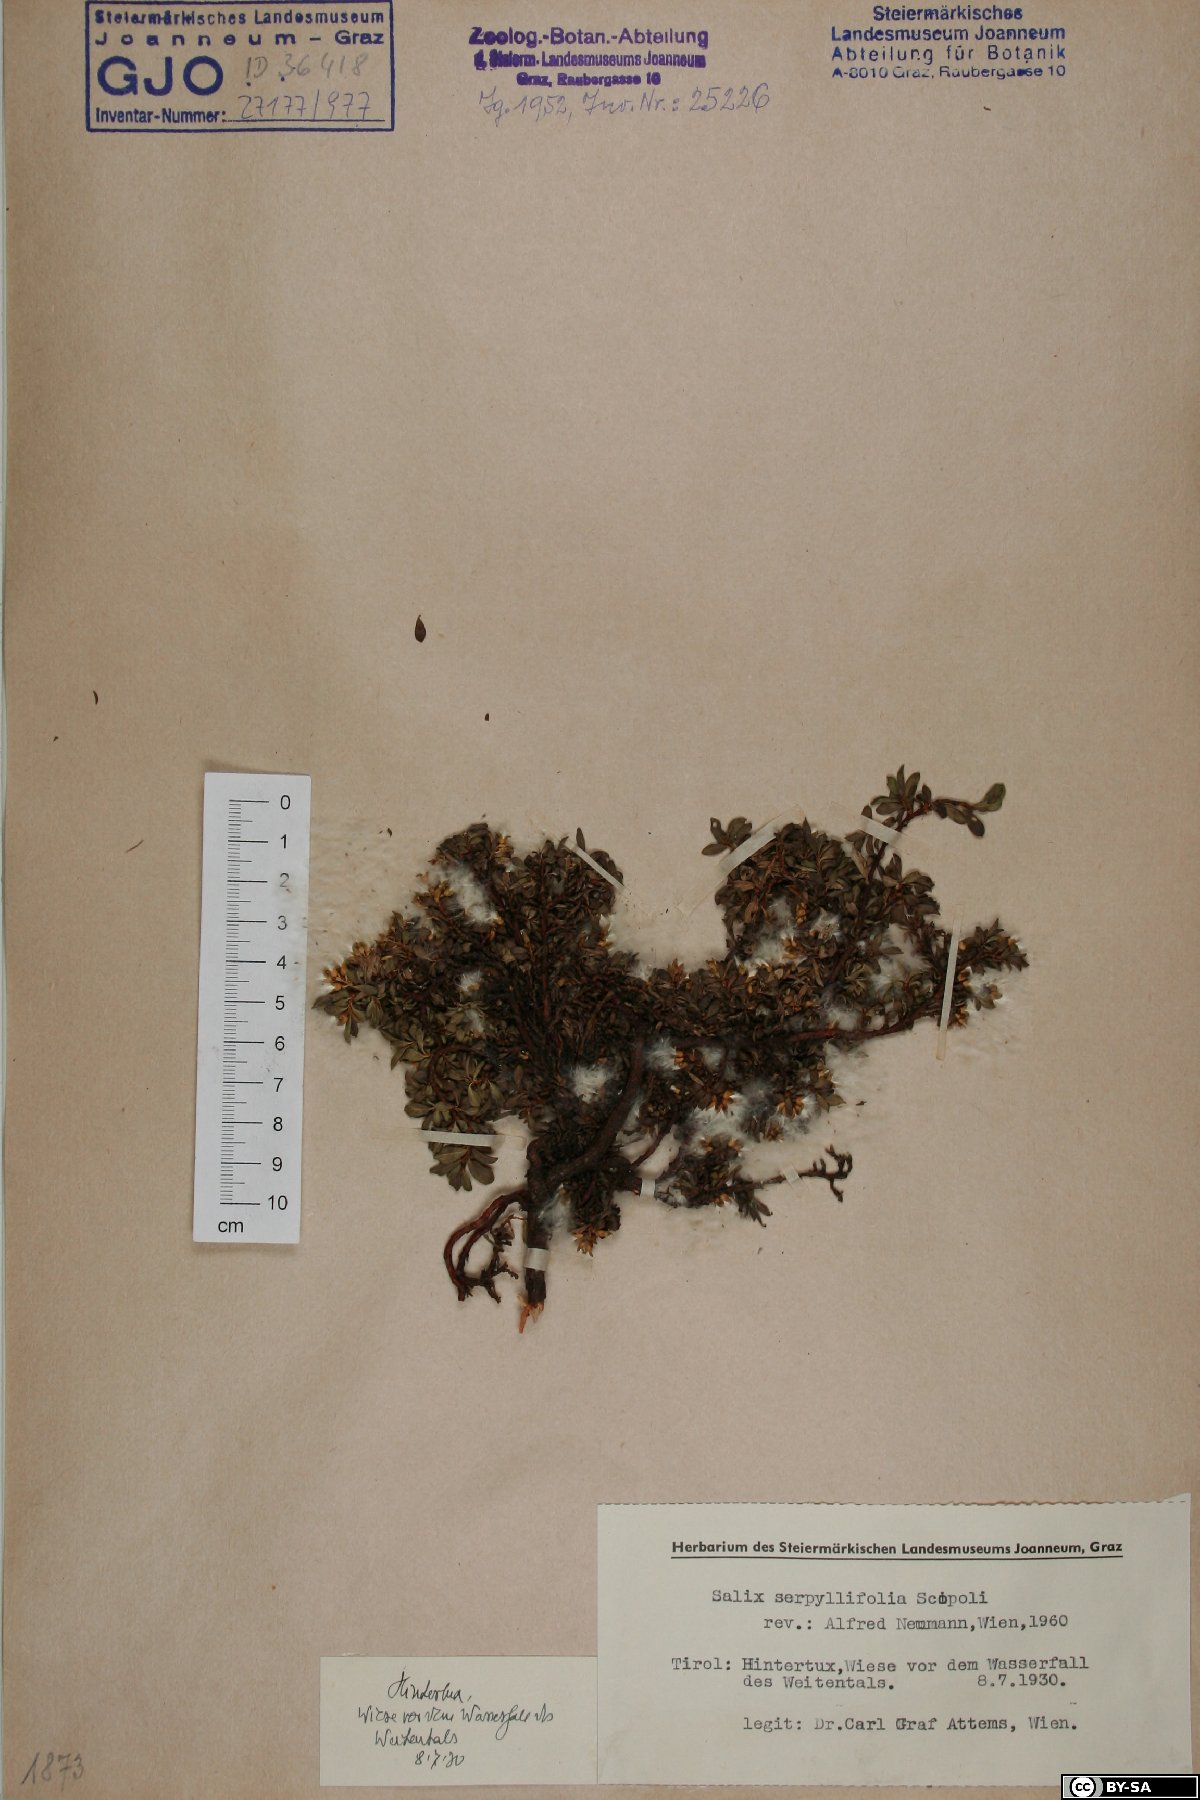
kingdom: Plantae
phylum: Tracheophyta
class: Magnoliopsida
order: Malpighiales
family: Salicaceae
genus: Salix
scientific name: Salix serpillifolia
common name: Thyme-leaf willow
